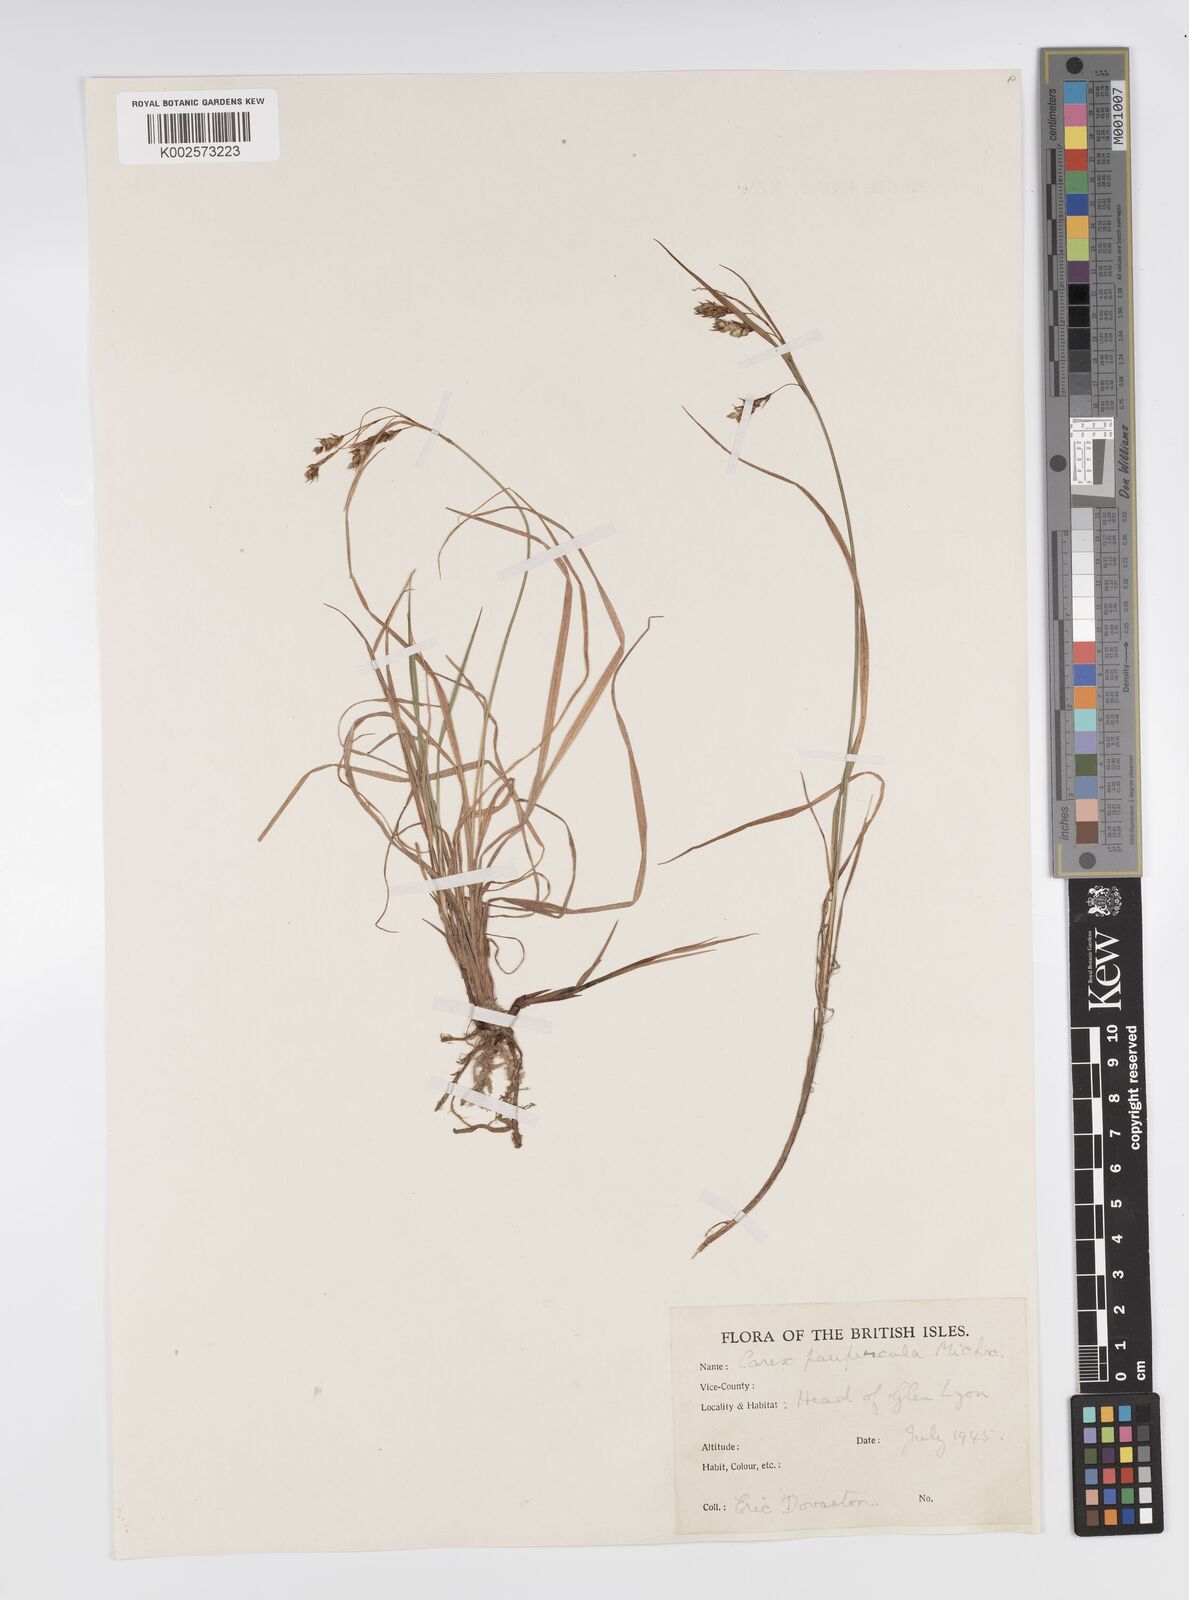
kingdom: Plantae
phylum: Tracheophyta
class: Liliopsida
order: Poales
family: Cyperaceae
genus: Carex
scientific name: Carex magellanica
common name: Bog sedge
